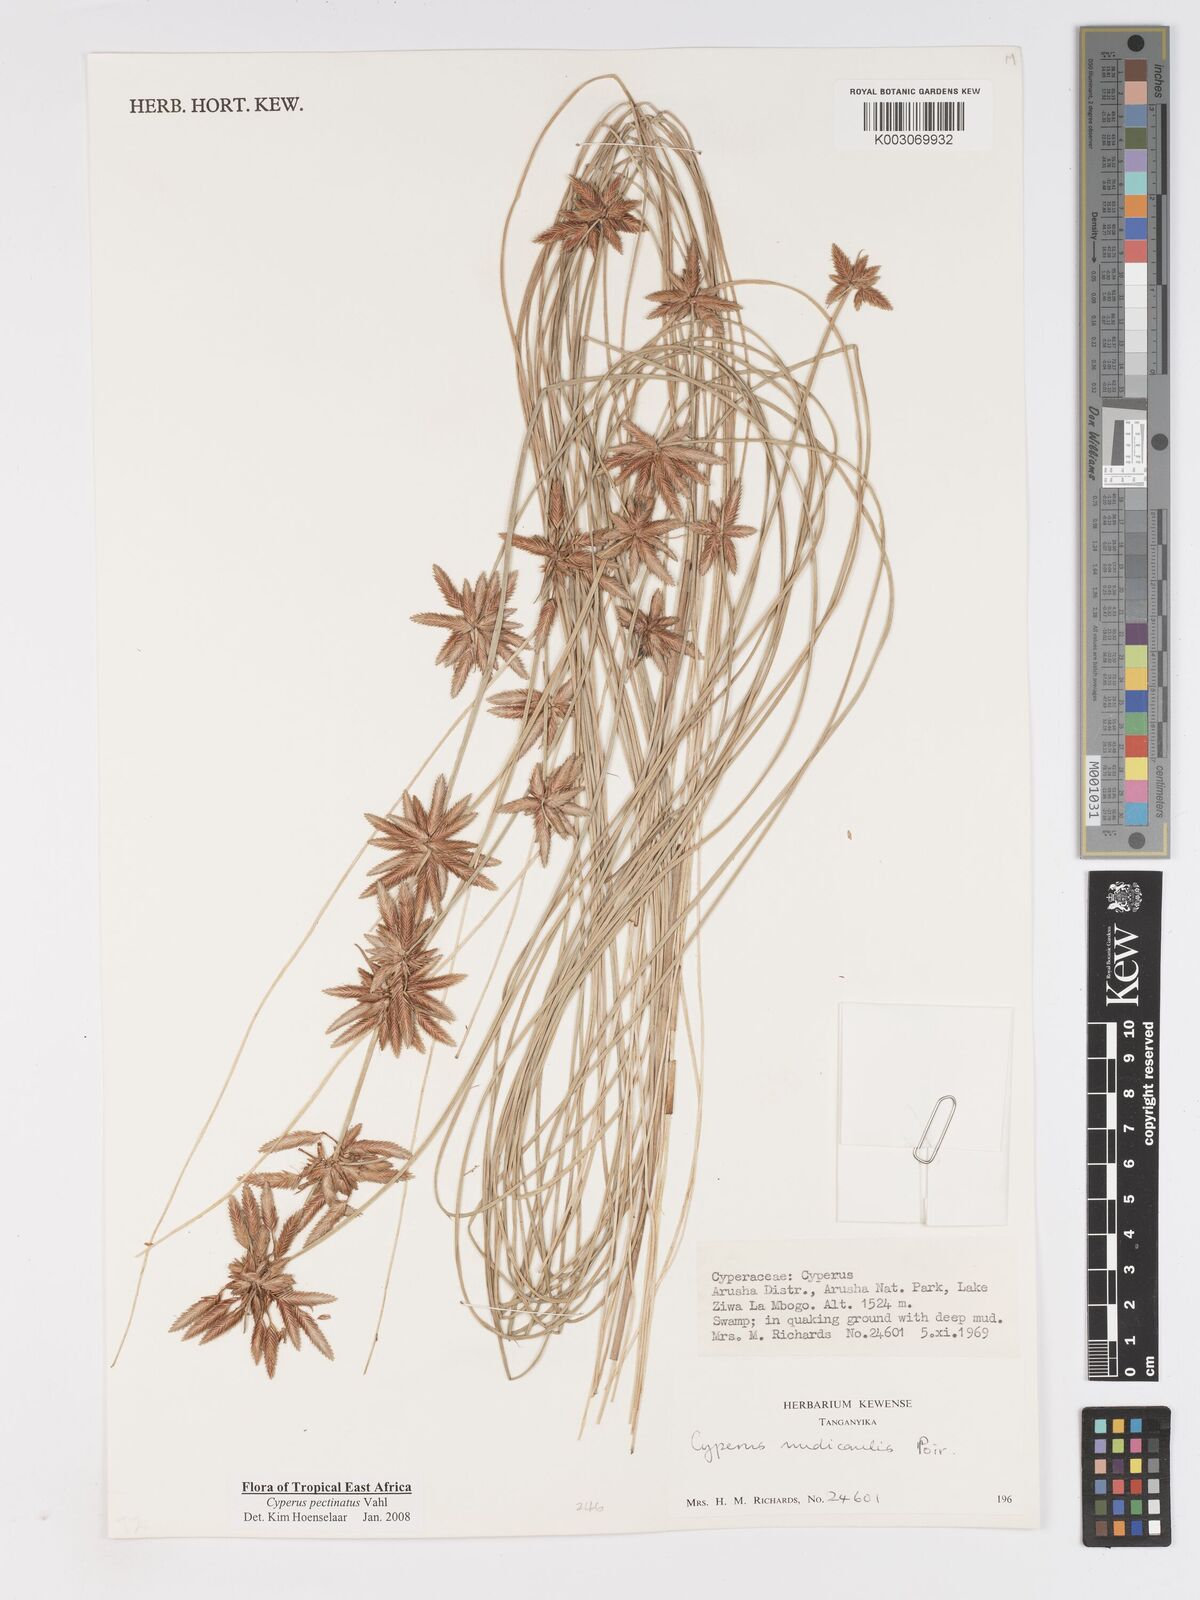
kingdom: Plantae
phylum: Tracheophyta
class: Liliopsida
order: Poales
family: Cyperaceae
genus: Cyperus
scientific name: Cyperus pectinatus
